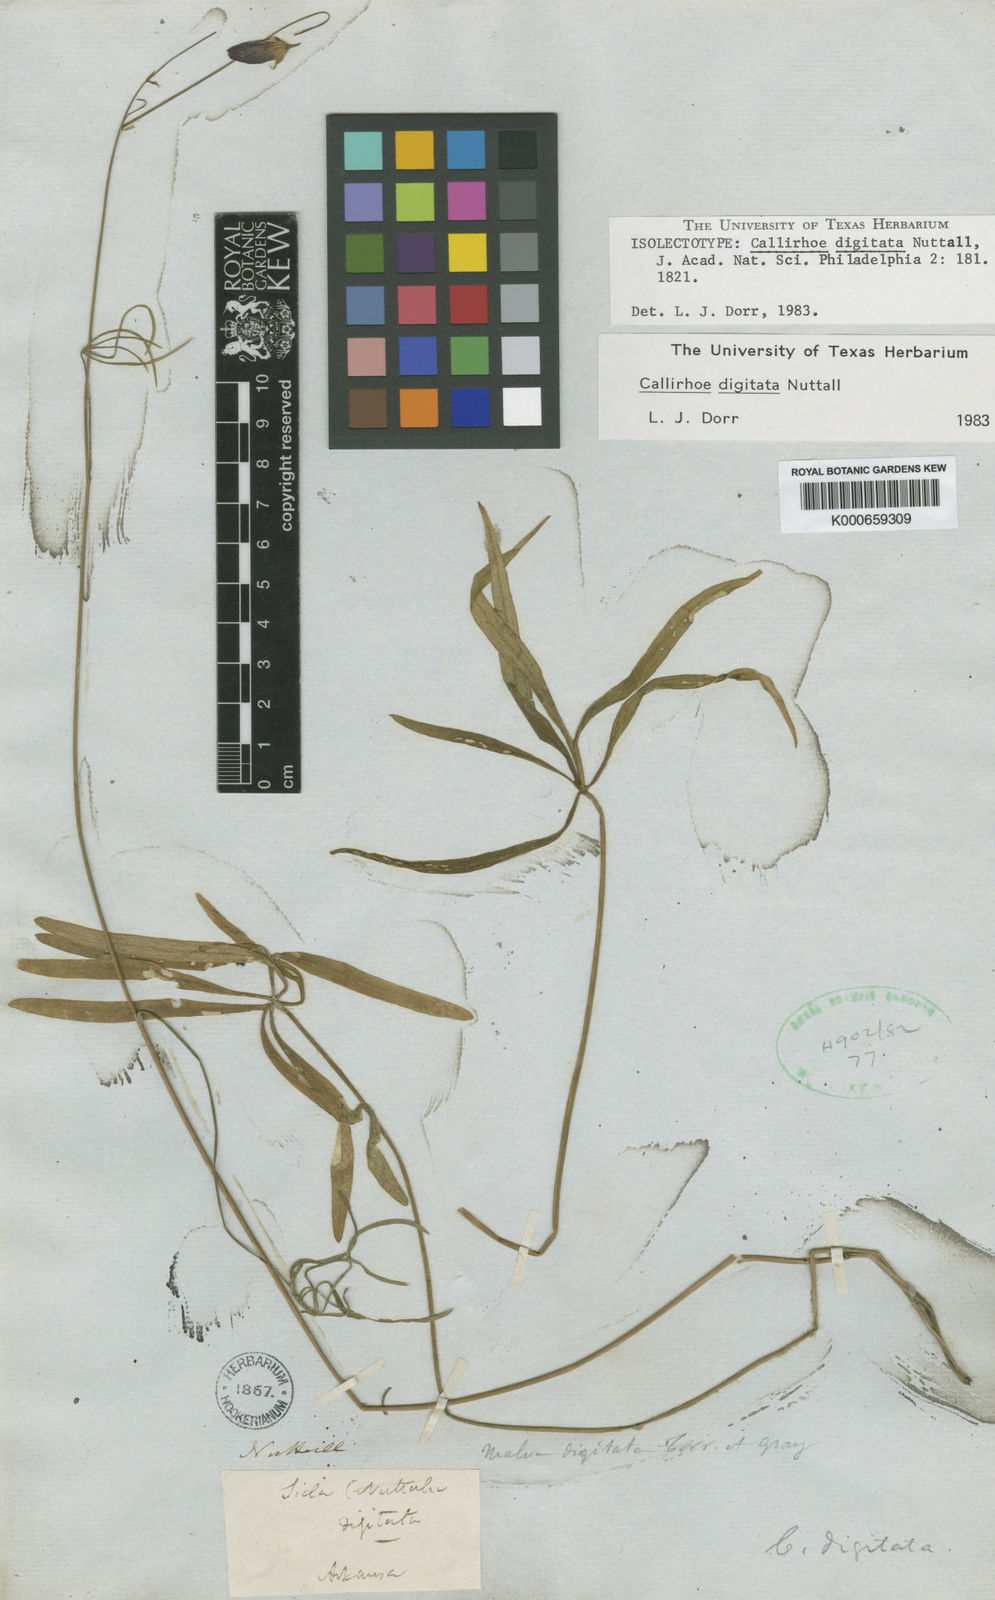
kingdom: Plantae
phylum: Tracheophyta
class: Magnoliopsida
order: Malvales
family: Malvaceae
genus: Callirhoe
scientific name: Callirhoe digitata
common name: Finger poppy-mallow
